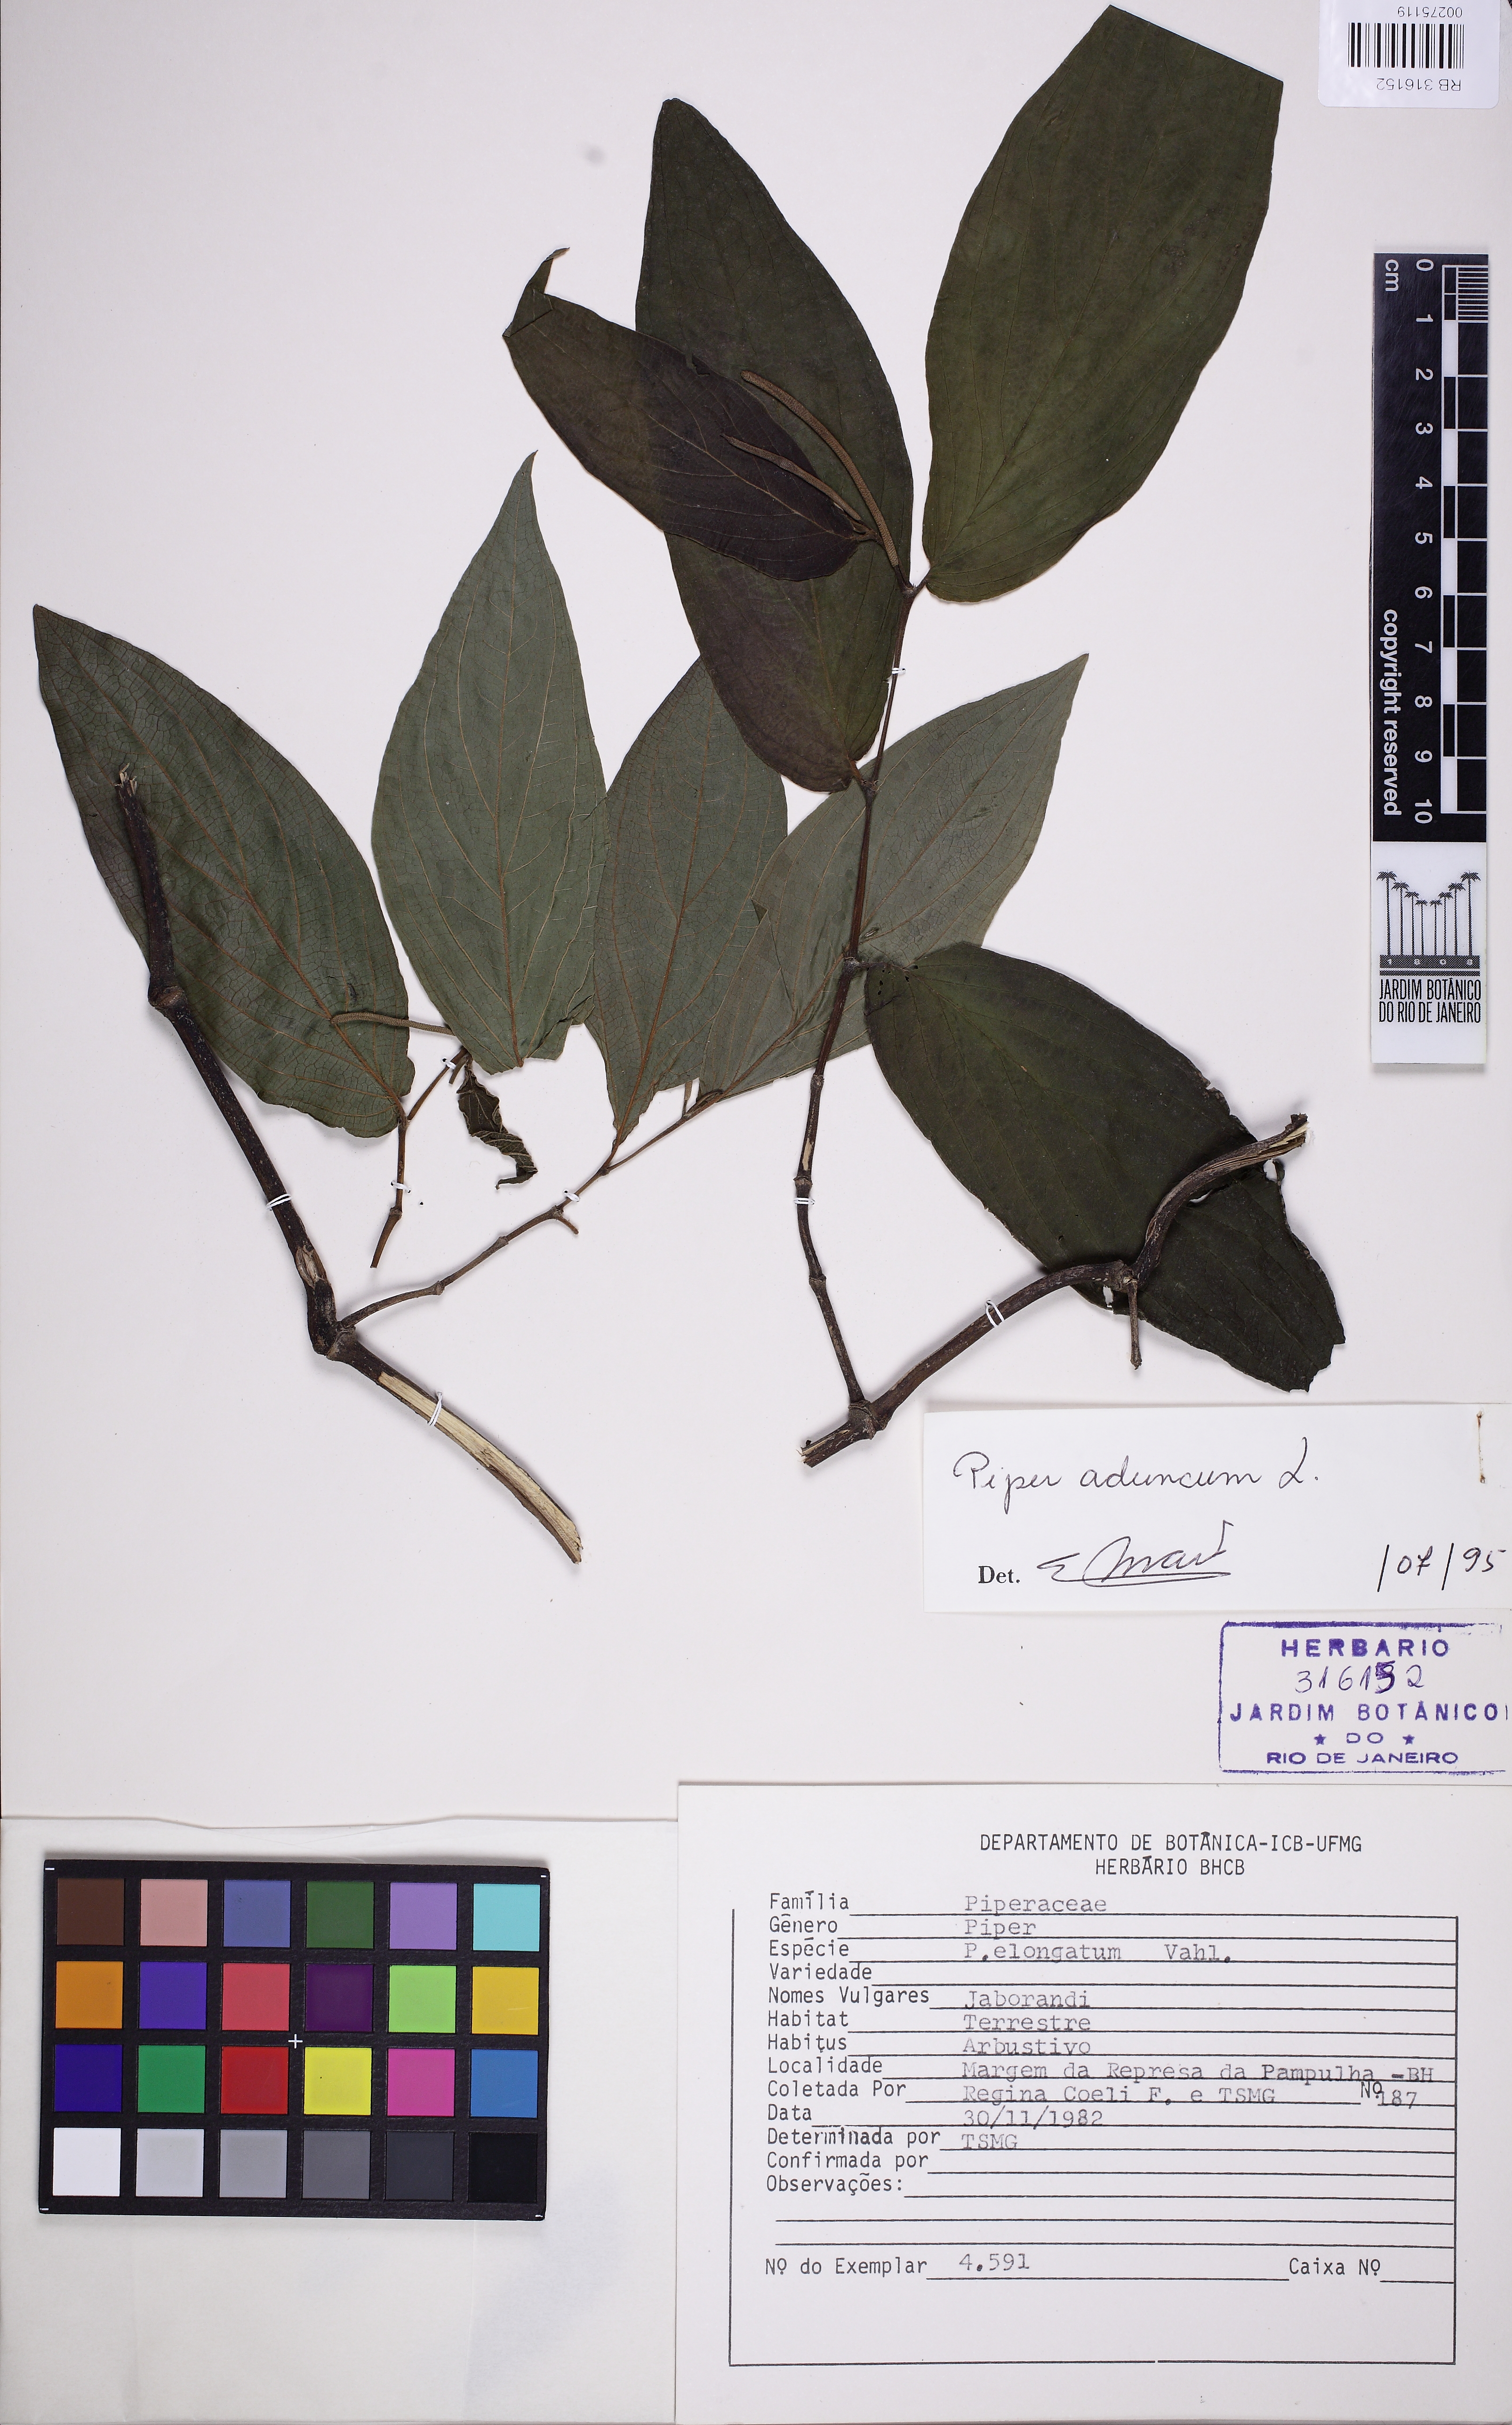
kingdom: Plantae
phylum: Tracheophyta
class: Magnoliopsida
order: Piperales
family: Piperaceae
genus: Piper
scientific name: Piper aduncum
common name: Spiked pepper
